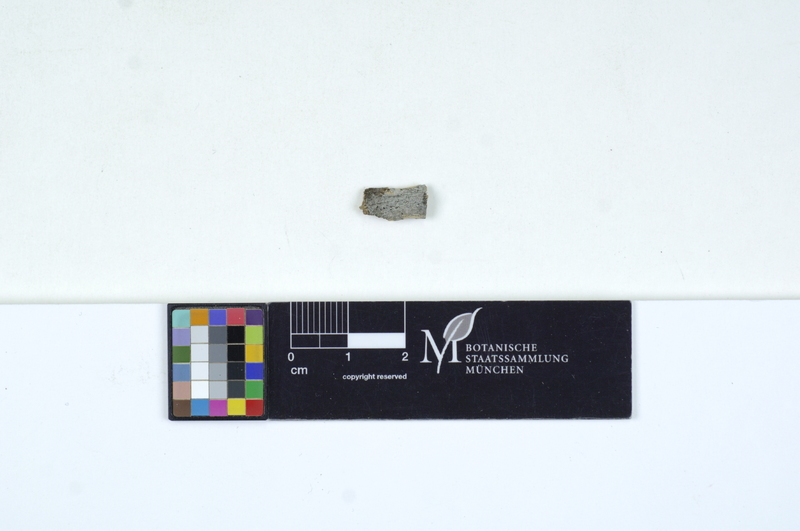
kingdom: Fungi
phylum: Basidiomycota
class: Agaricomycetes
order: Cantharellales
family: Tulasnellaceae
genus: Tulasnella
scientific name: Tulasnella allantospora
